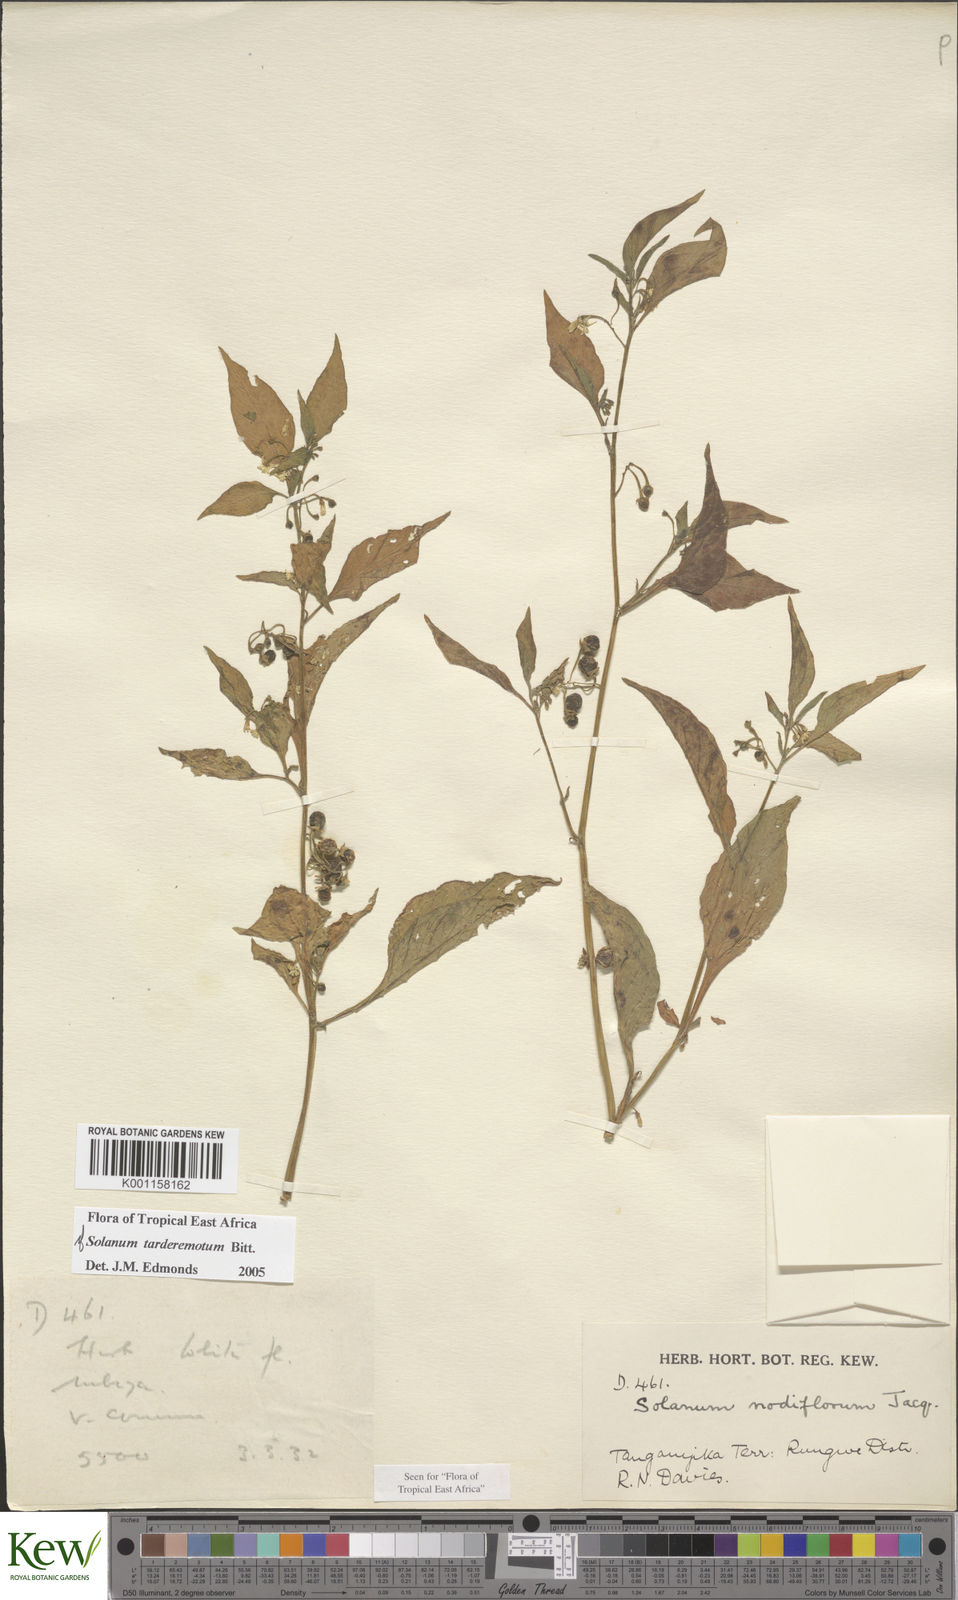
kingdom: Plantae
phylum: Tracheophyta
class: Magnoliopsida
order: Solanales
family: Solanaceae
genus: Solanum
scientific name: Solanum tarderemotum
